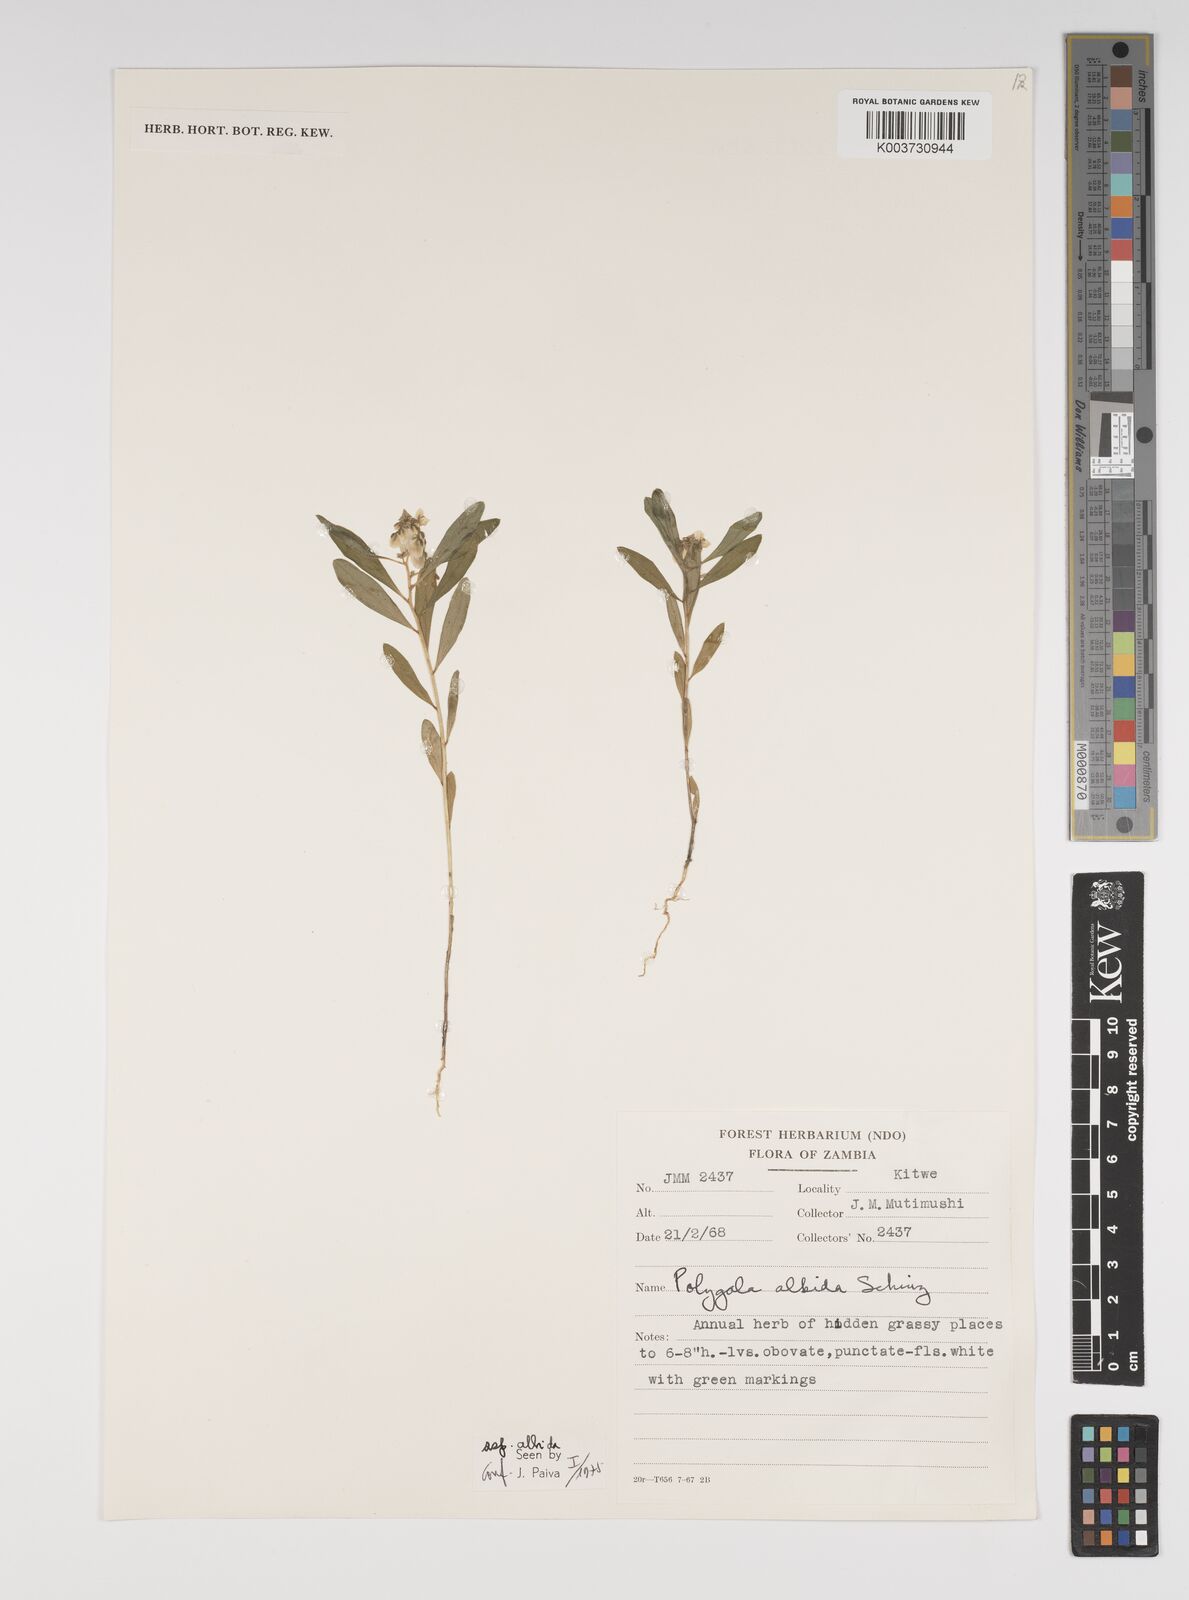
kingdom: Plantae
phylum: Tracheophyta
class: Magnoliopsida
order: Fabales
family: Polygalaceae
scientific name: Polygalaceae
